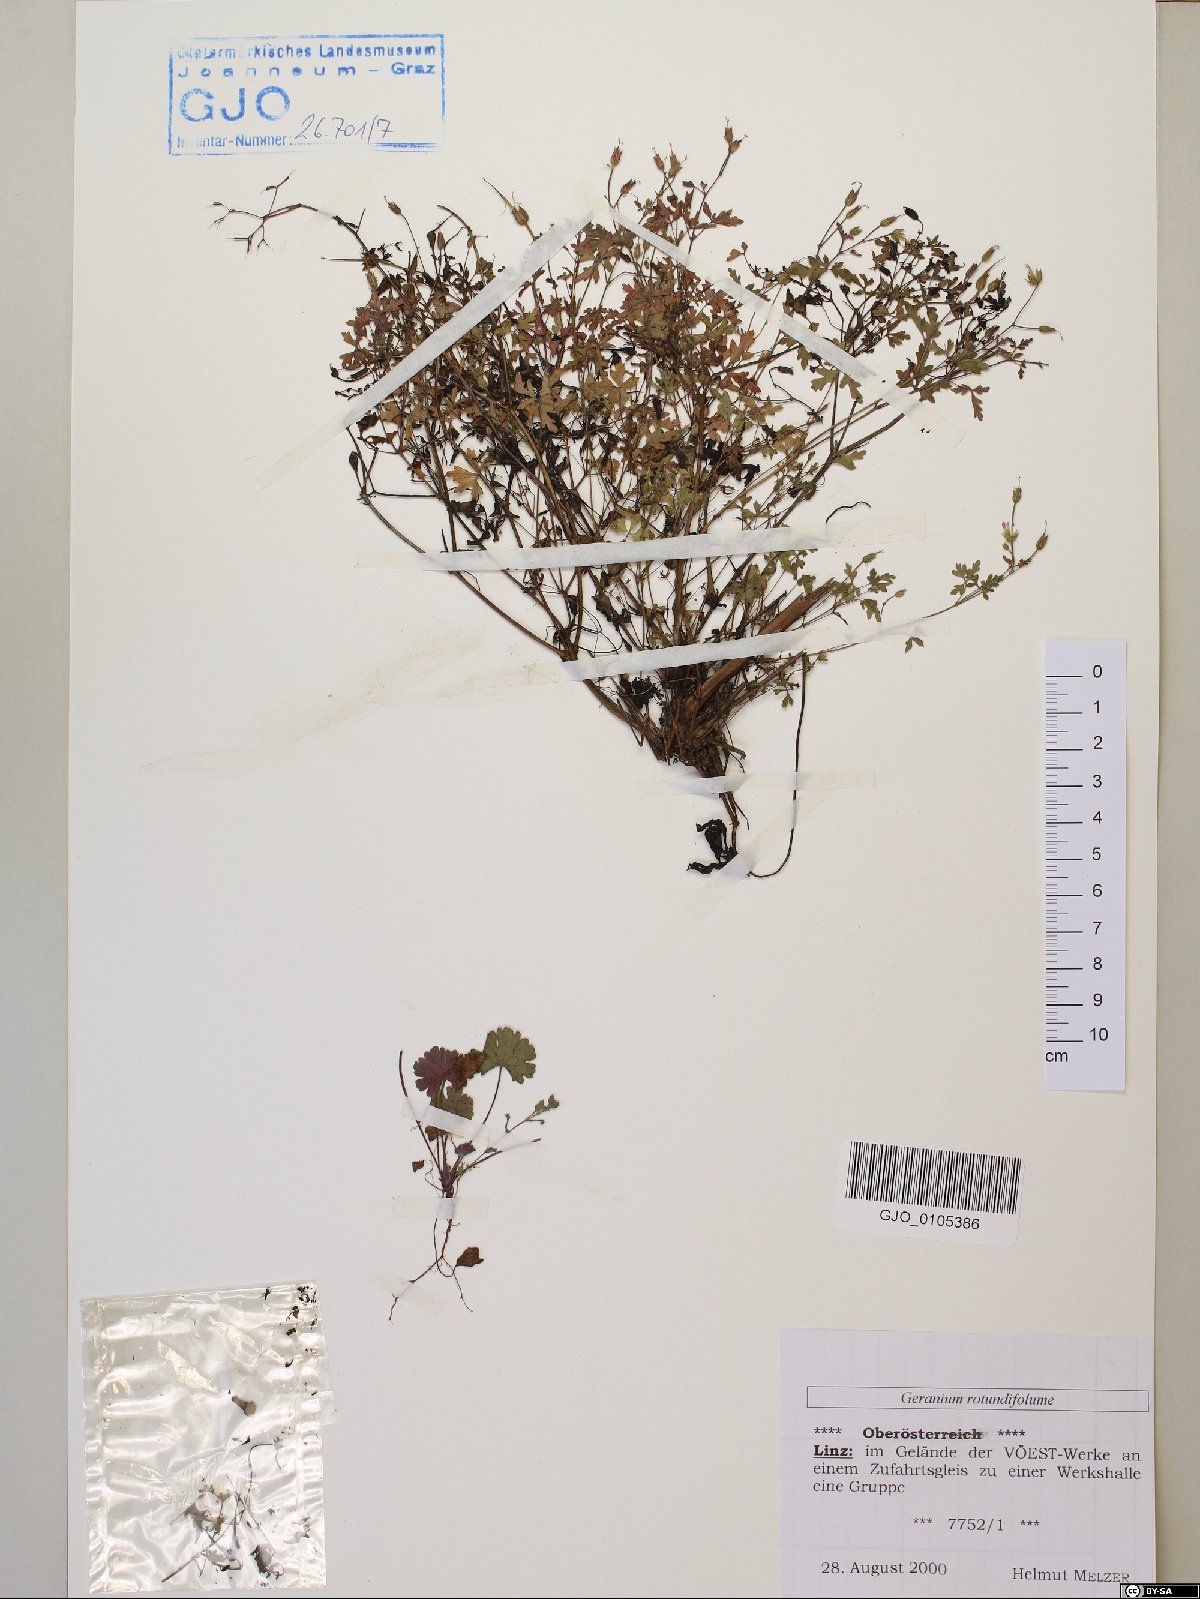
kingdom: Plantae
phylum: Tracheophyta
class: Magnoliopsida
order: Geraniales
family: Geraniaceae
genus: Geranium
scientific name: Geranium rotundifolium
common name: Round-leaved crane's-bill
